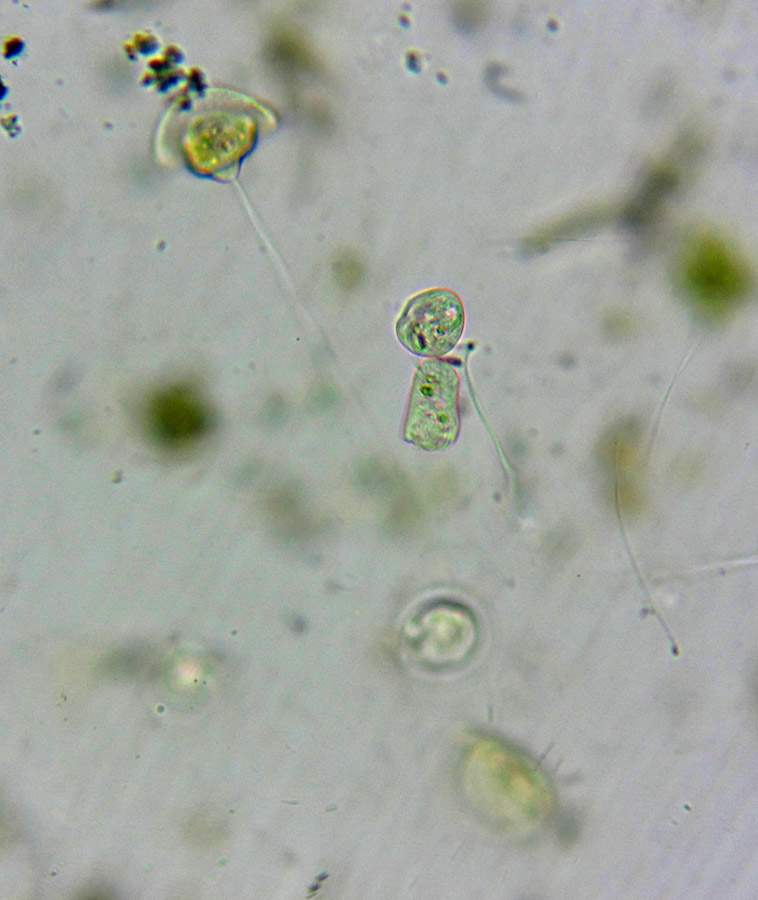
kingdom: Chromista
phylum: Ciliophora
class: Oligohymenophorea
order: Peritrichida
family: Vorticellidae
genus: Vorticella
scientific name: Vorticella citrina
